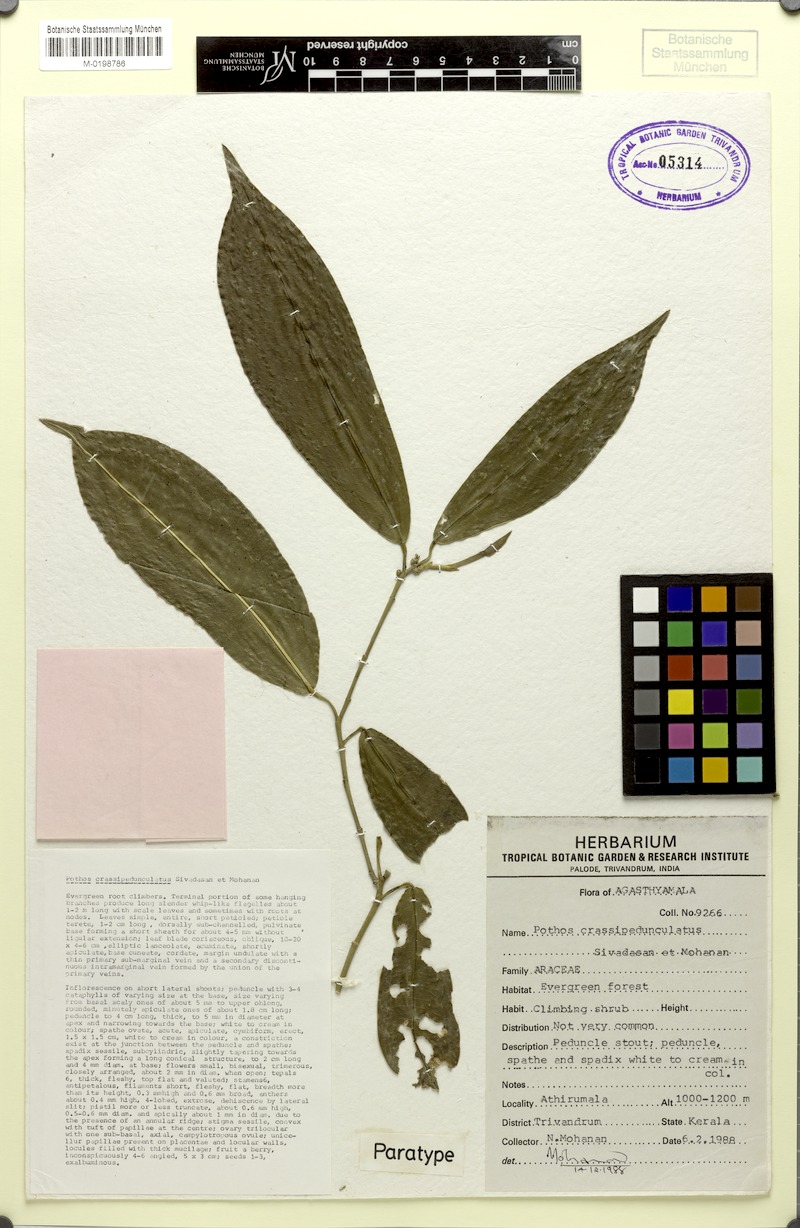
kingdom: Plantae
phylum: Tracheophyta
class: Liliopsida
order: Alismatales
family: Araceae
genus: Pothos
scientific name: Pothos crassipedunculatus
